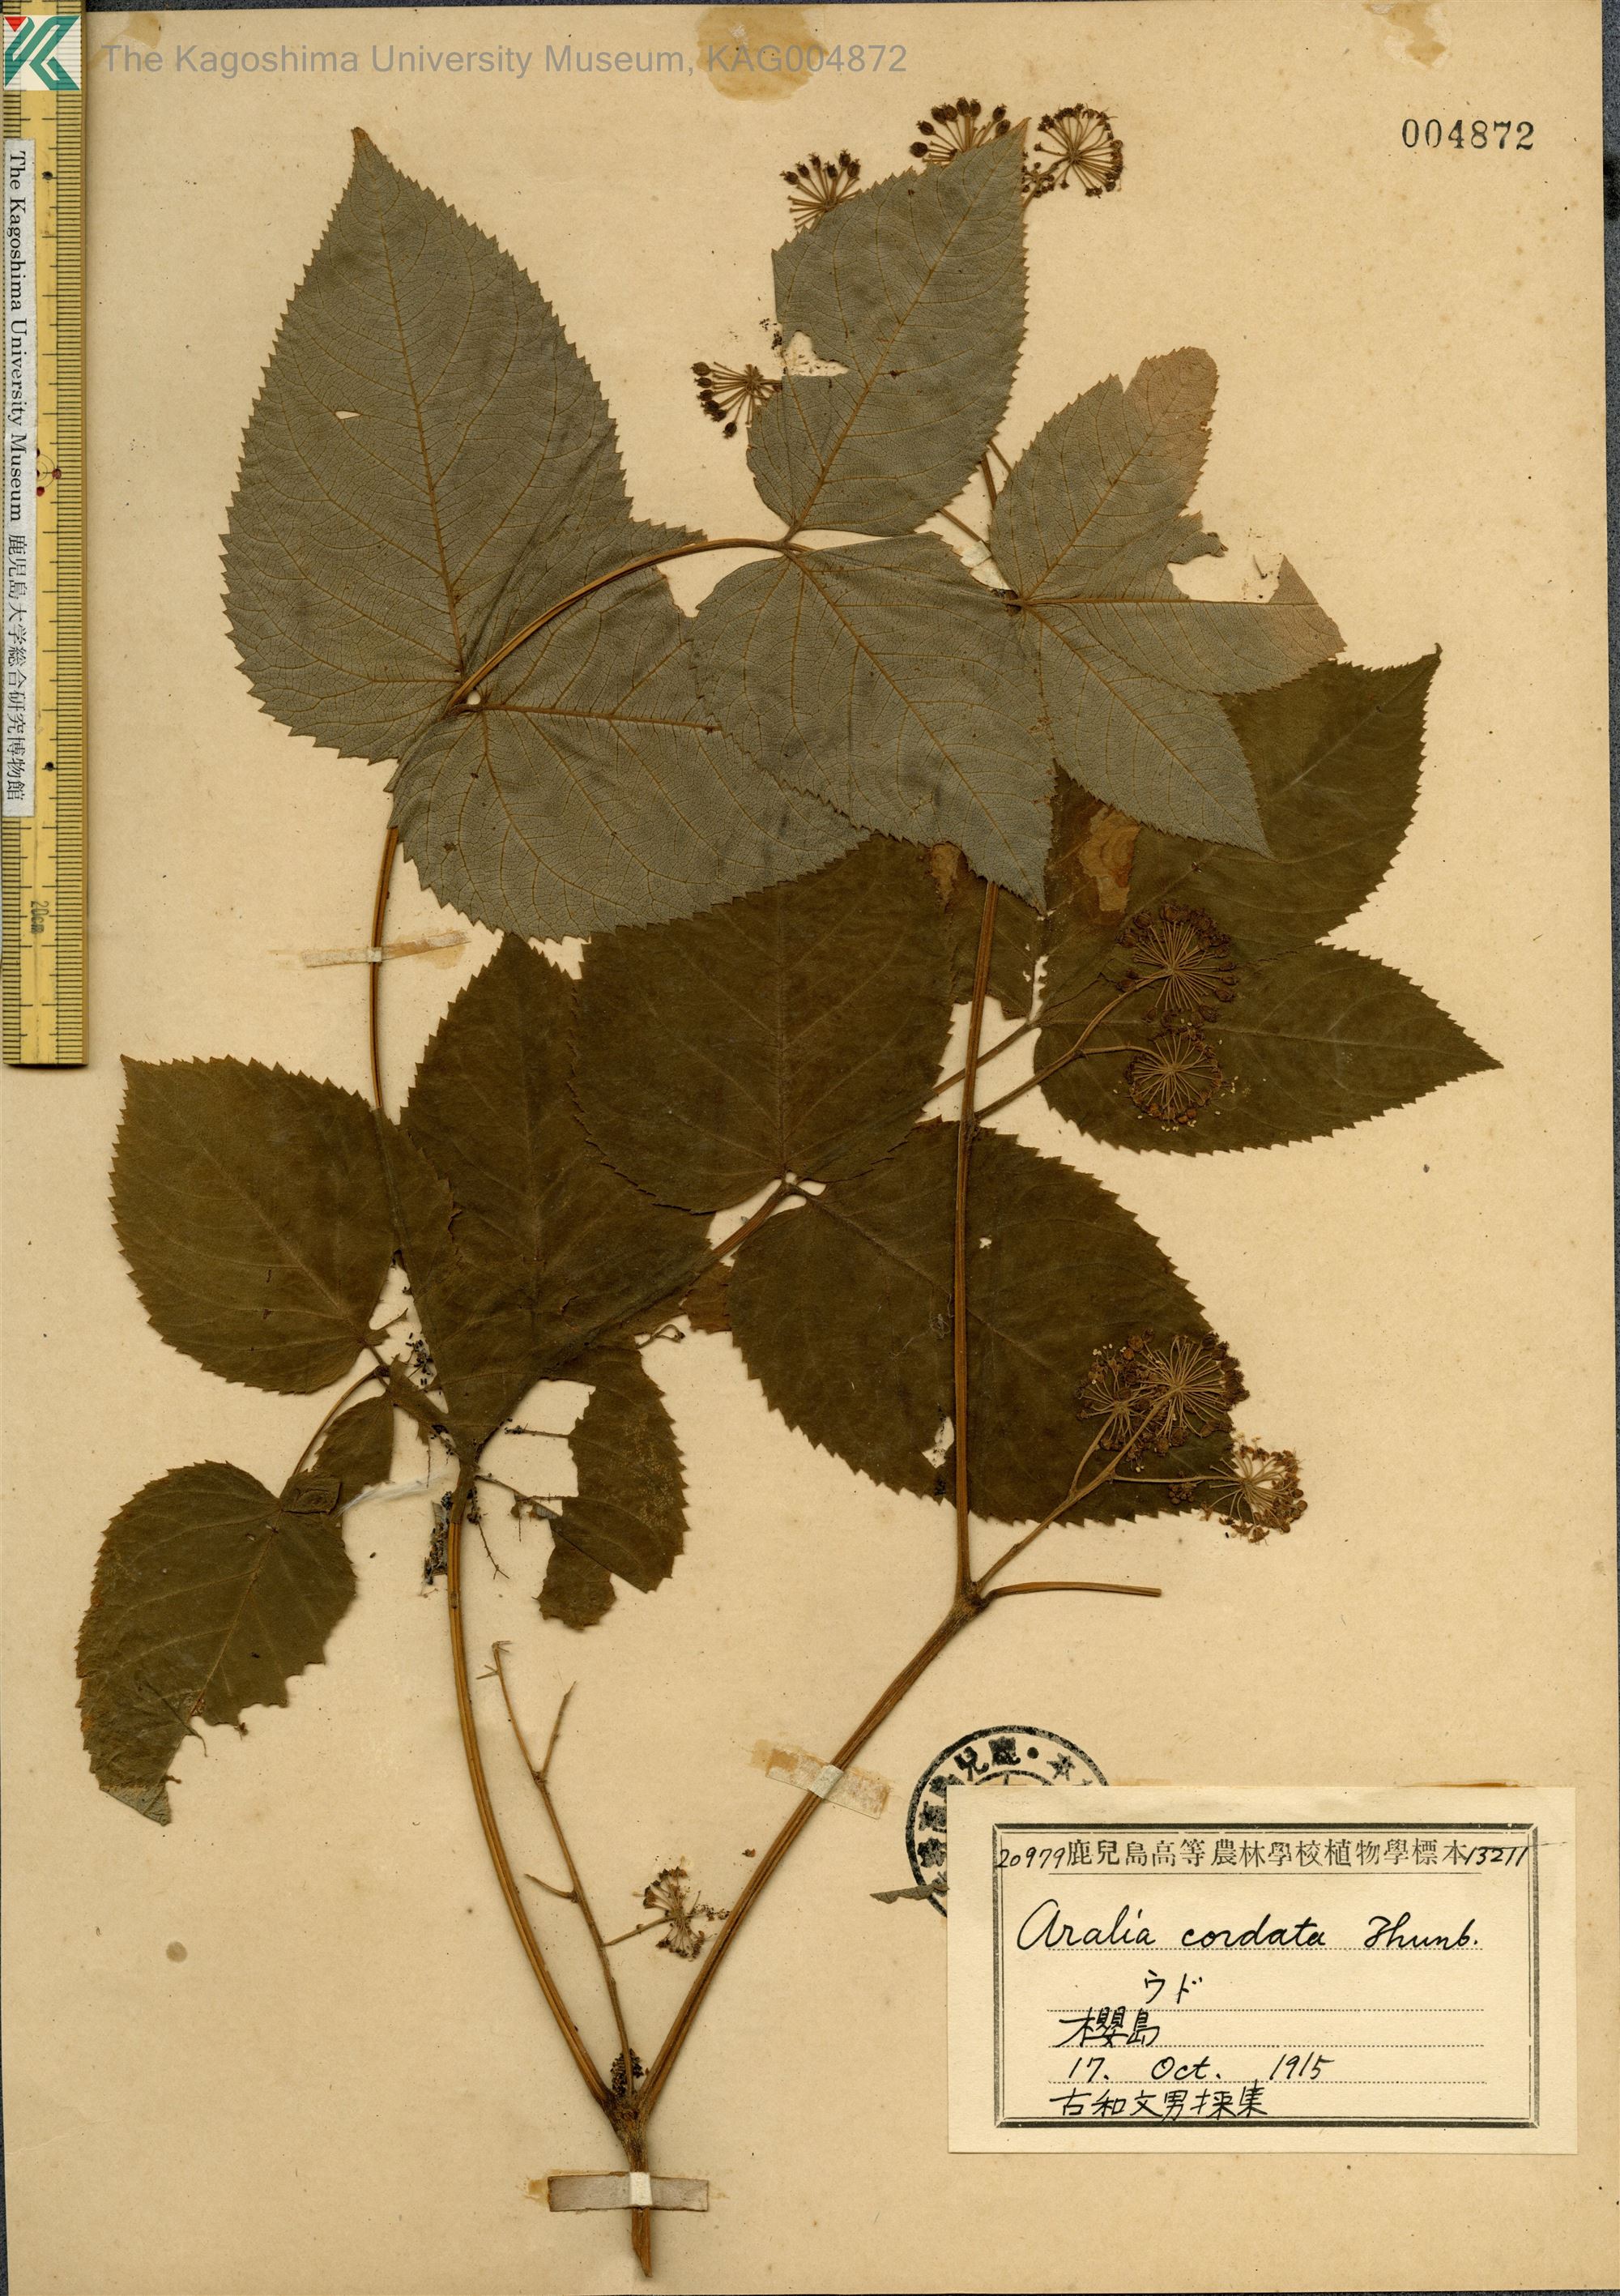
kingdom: Plantae
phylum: Tracheophyta
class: Magnoliopsida
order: Apiales
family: Araliaceae
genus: Aralia
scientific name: Aralia cordata
